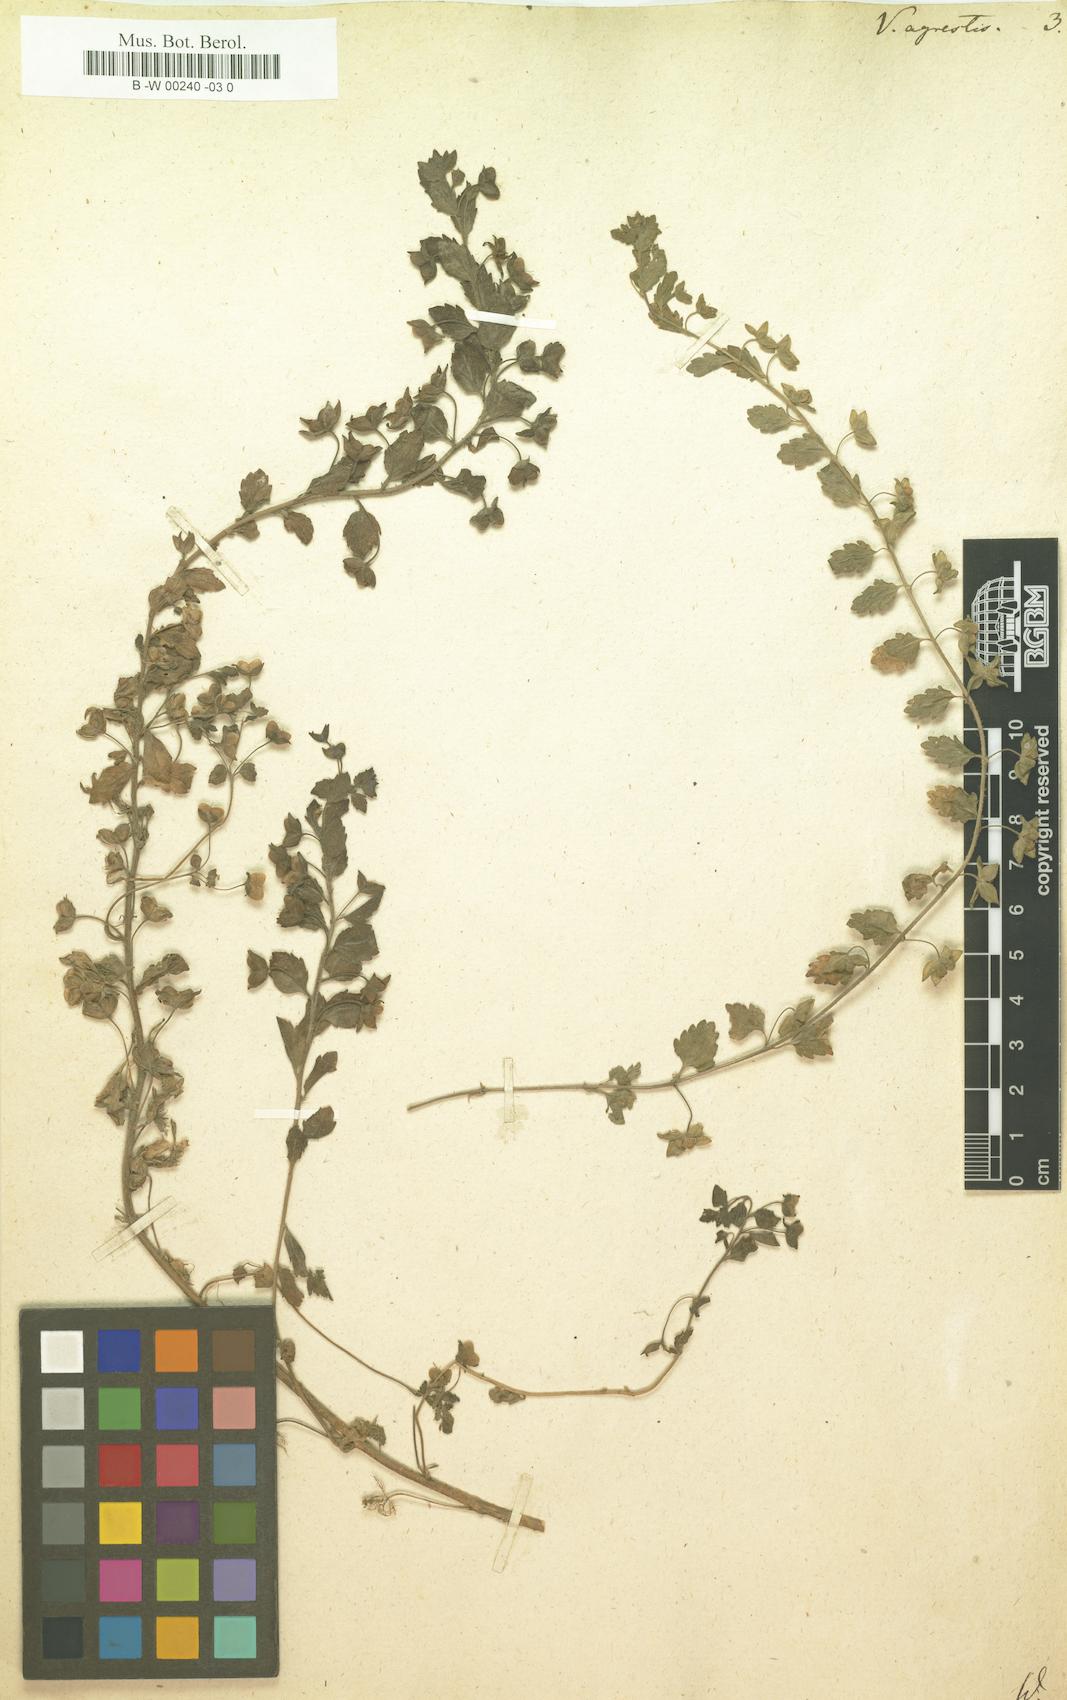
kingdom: Plantae
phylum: Tracheophyta
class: Magnoliopsida
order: Lamiales
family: Plantaginaceae
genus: Veronica
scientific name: Veronica agrestis
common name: Green field-speedwell
